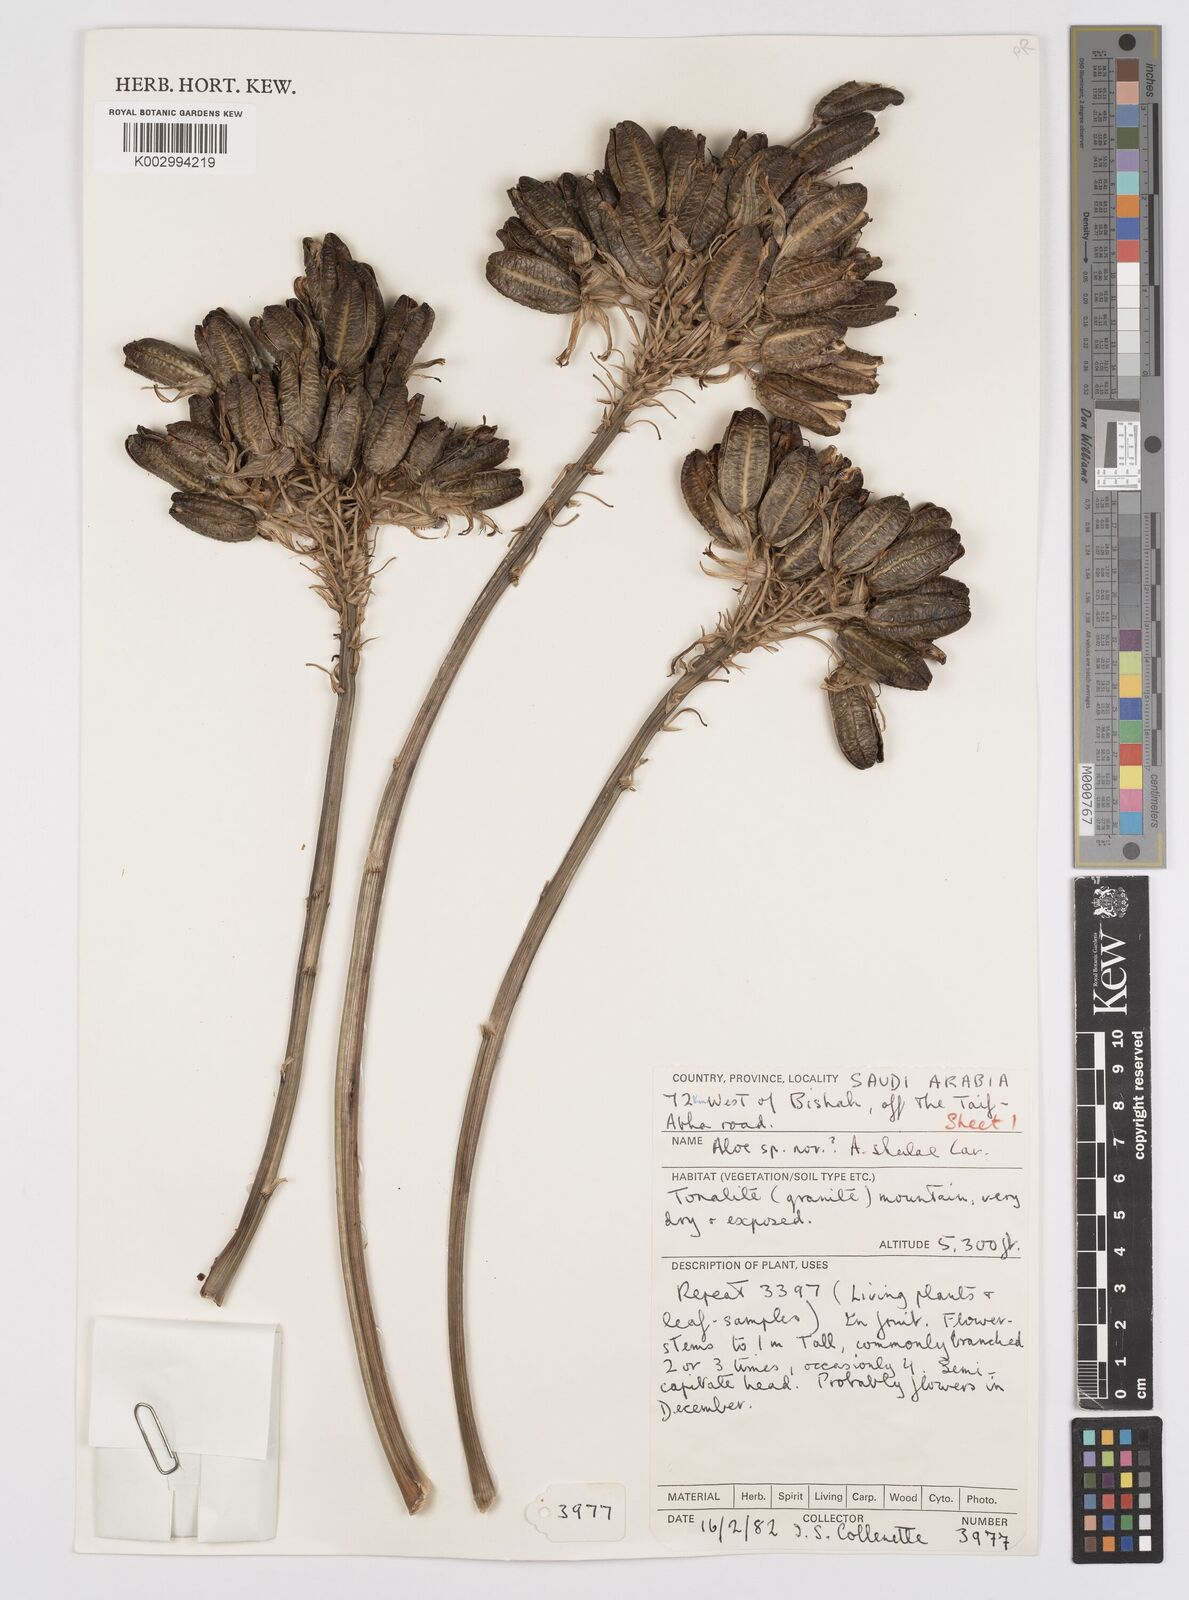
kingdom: Plantae
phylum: Tracheophyta
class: Liliopsida
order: Asparagales
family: Asphodelaceae
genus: Aloe
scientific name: Aloe sheilae
